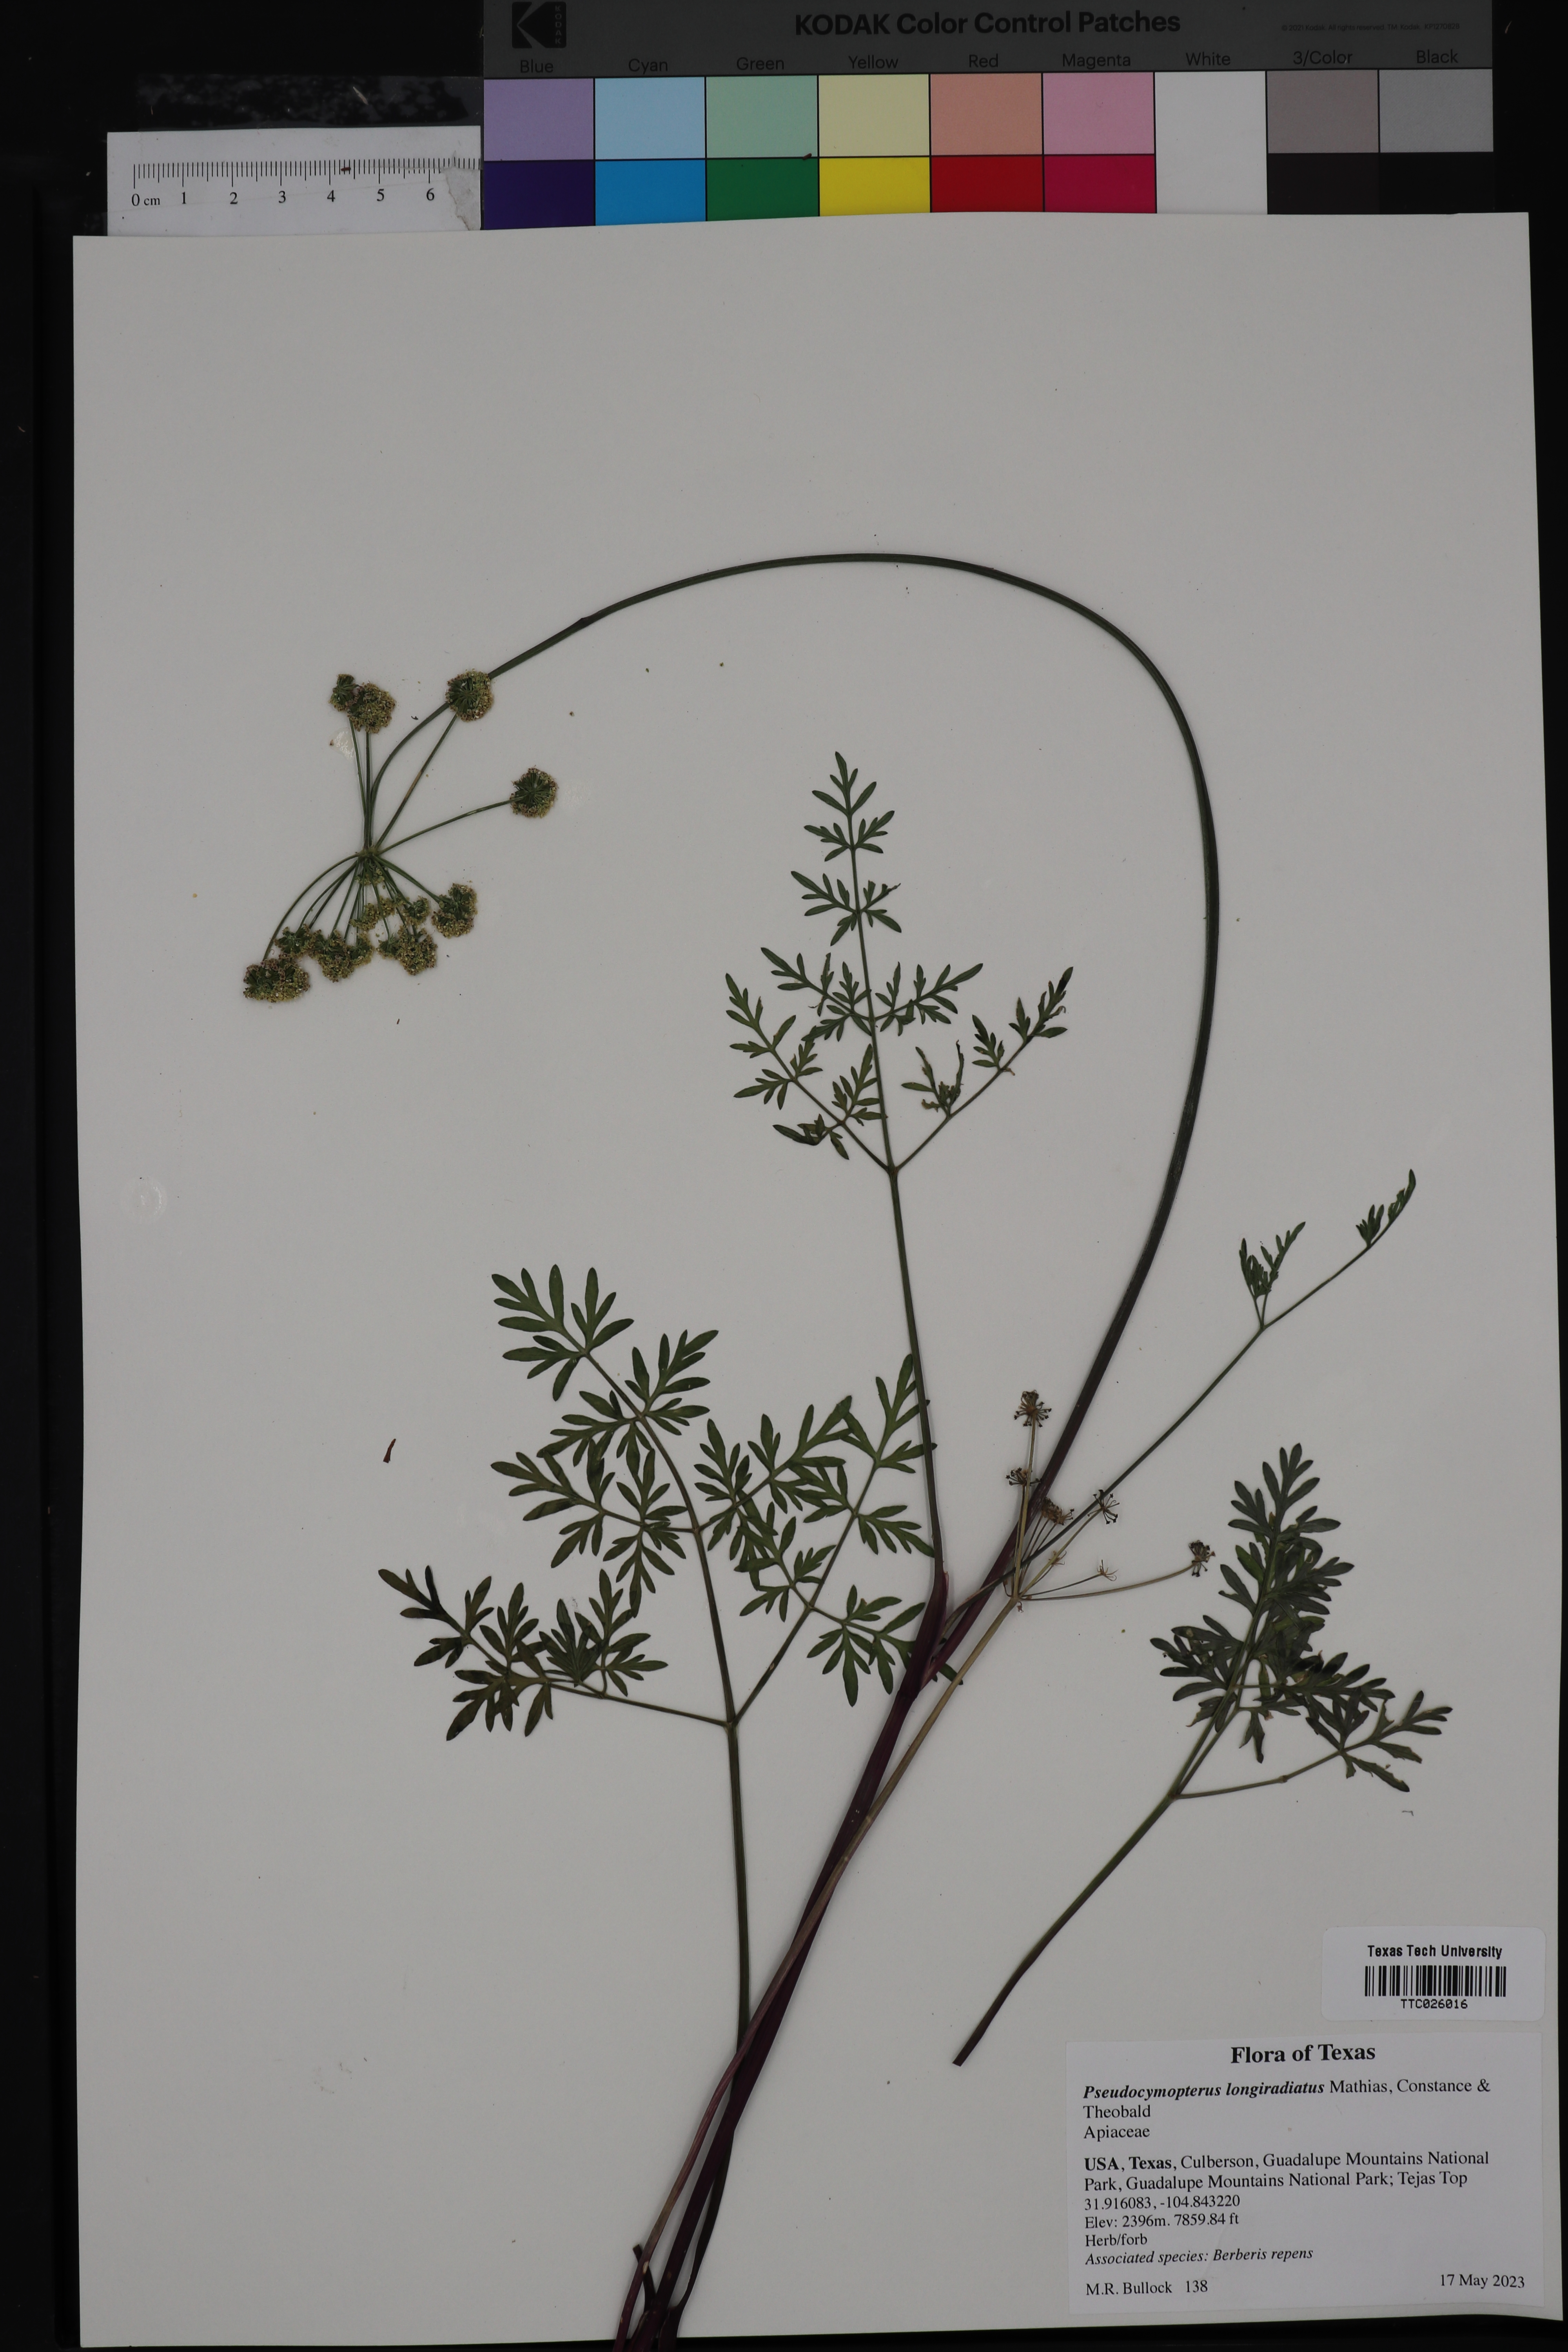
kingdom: Plantae
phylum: Tracheophyta
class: Magnoliopsida
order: Apiales
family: Apiaceae
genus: Pseudocymopterus
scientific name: Pseudocymopterus longiradiatus
